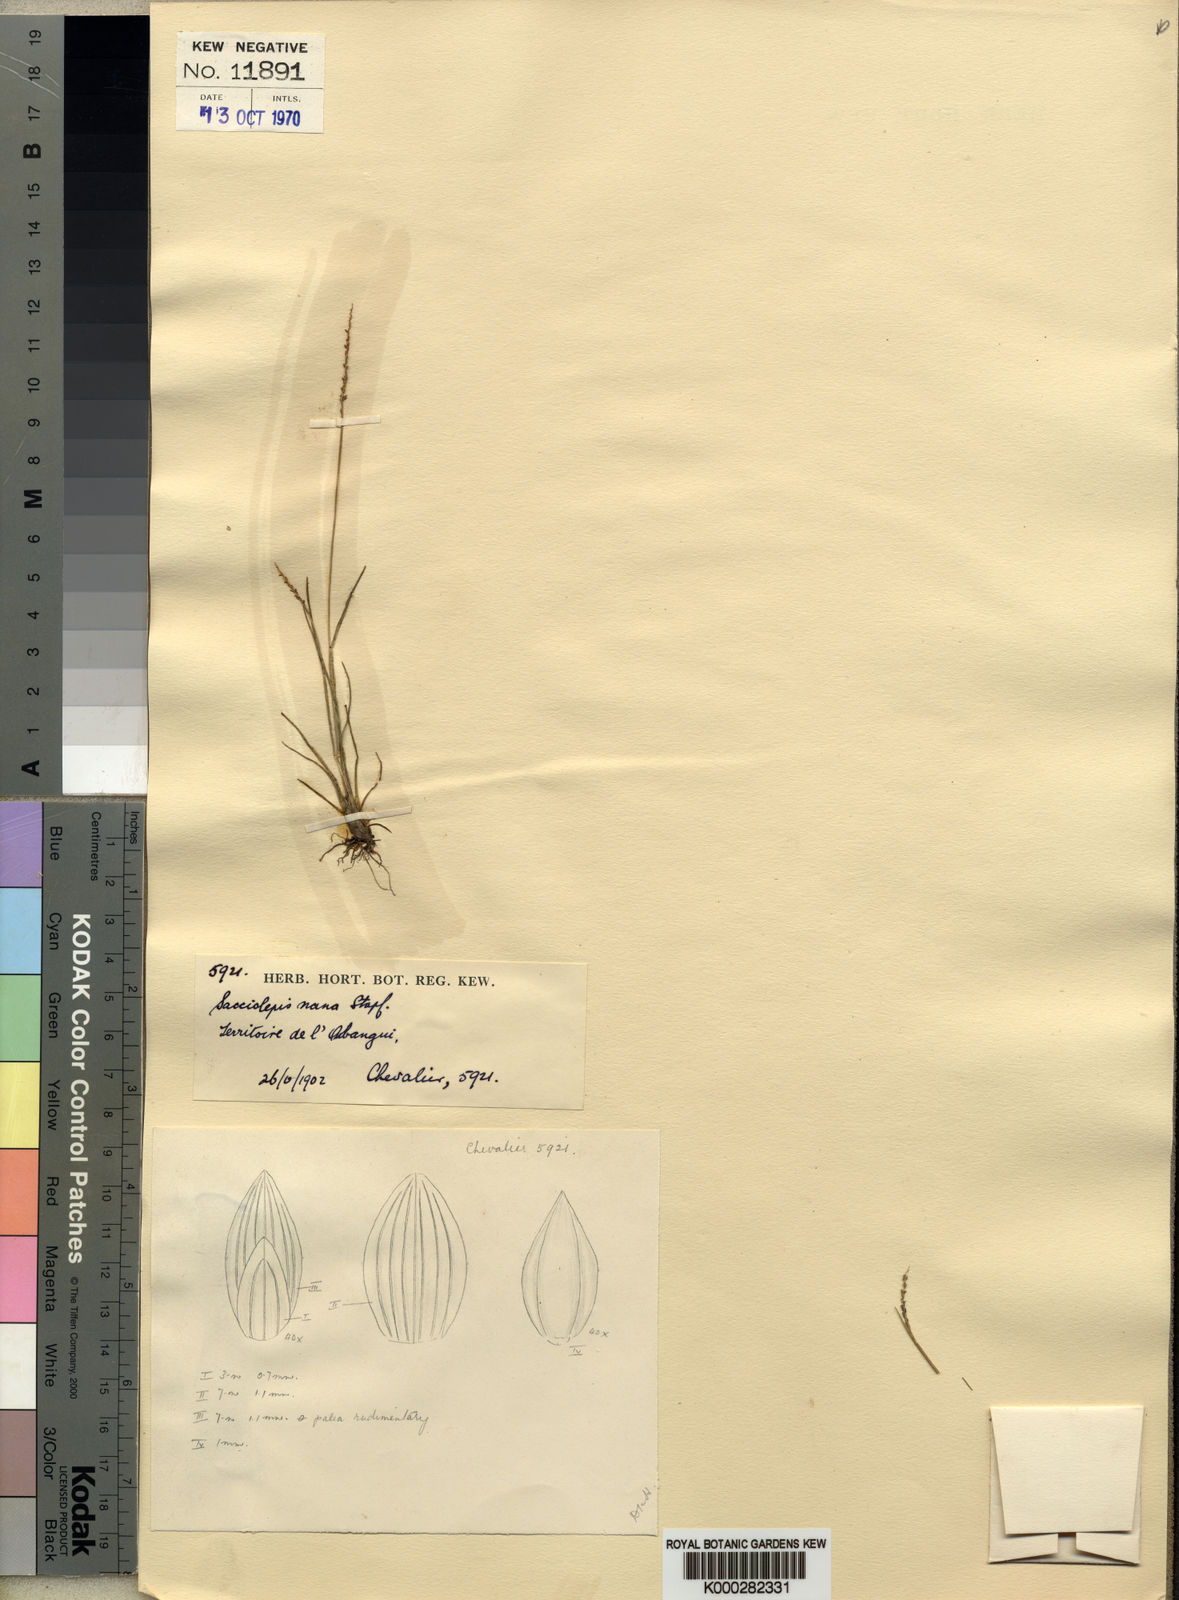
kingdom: Plantae
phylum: Tracheophyta
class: Liliopsida
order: Poales
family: Poaceae
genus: Sacciolepis
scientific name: Sacciolepis micrococca
